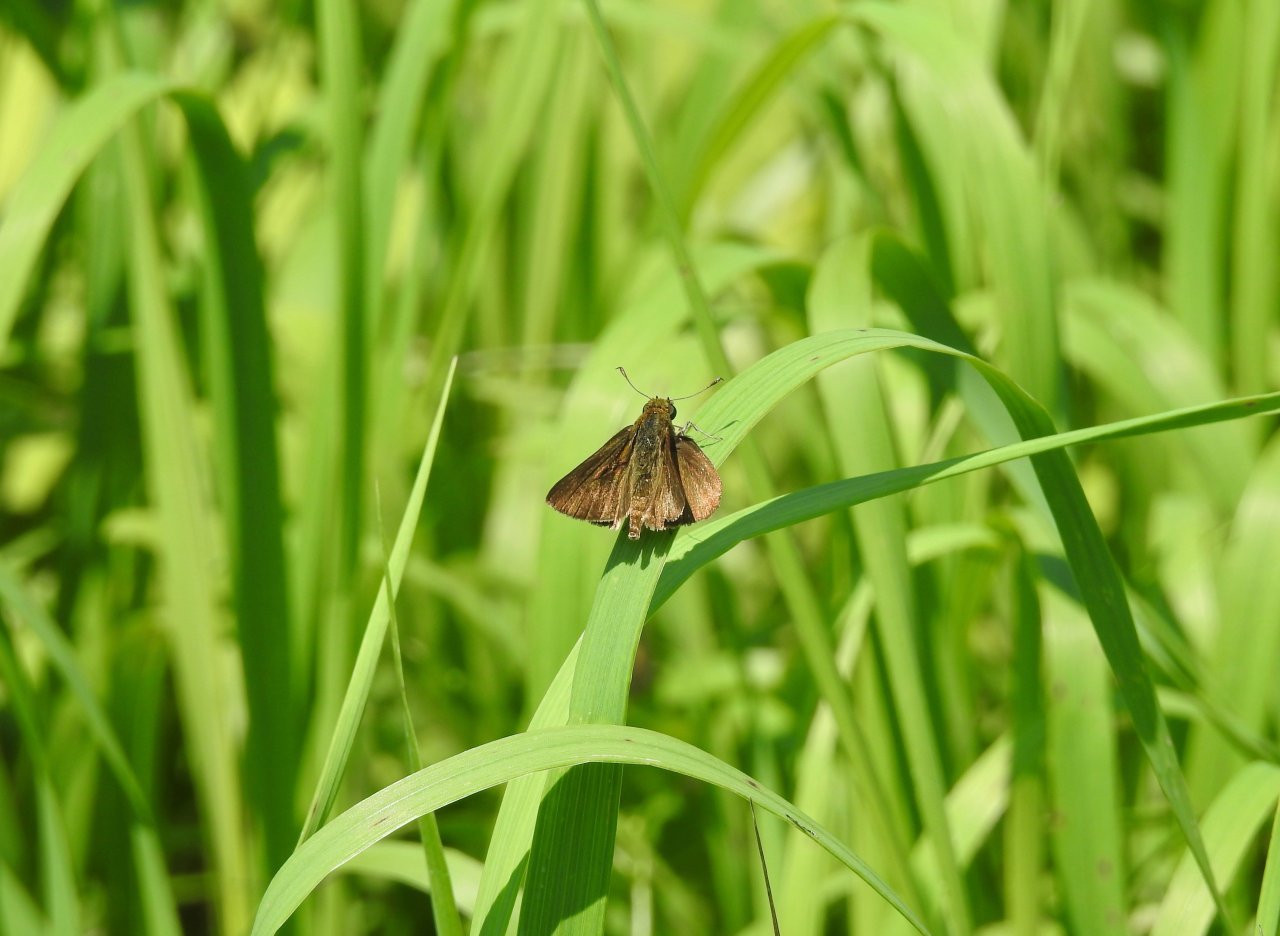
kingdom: Animalia
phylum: Arthropoda
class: Insecta
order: Lepidoptera
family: Hesperiidae
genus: Euphyes
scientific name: Euphyes vestris
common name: Dun Skipper
